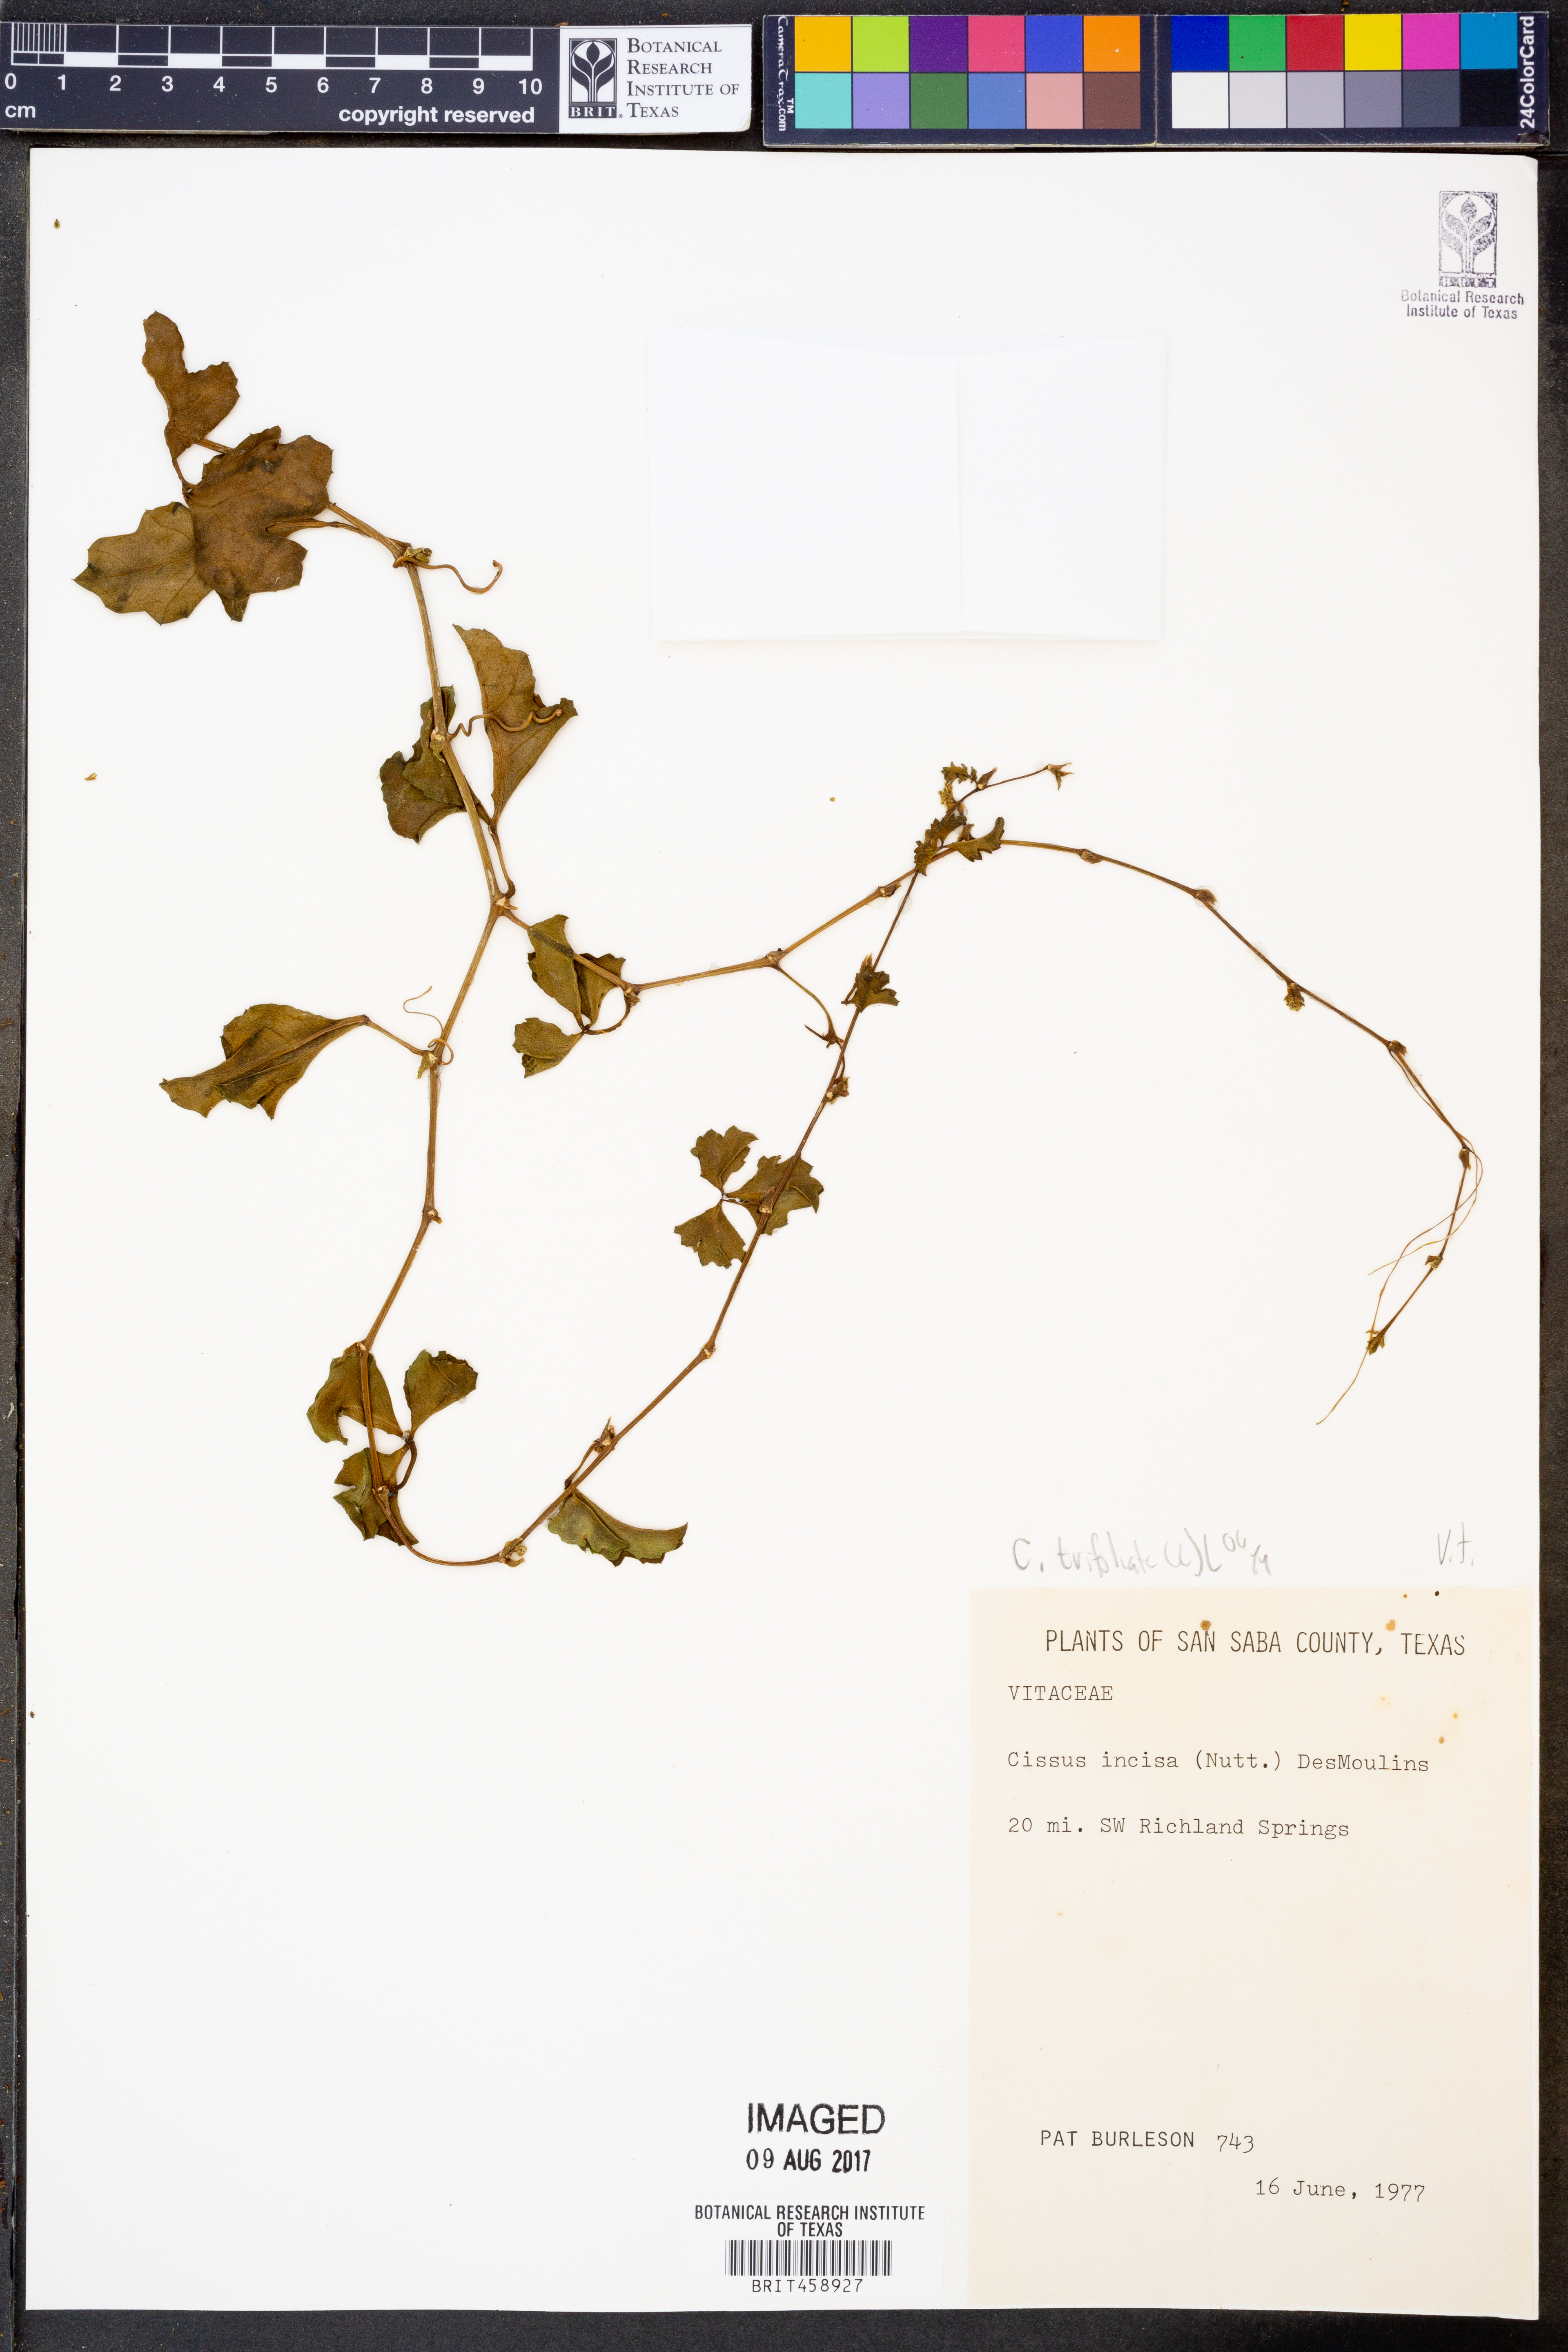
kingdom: Plantae
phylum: Tracheophyta
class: Magnoliopsida
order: Vitales
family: Vitaceae
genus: Cissus
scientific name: Cissus trifoliata
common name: Vine-sorrel
